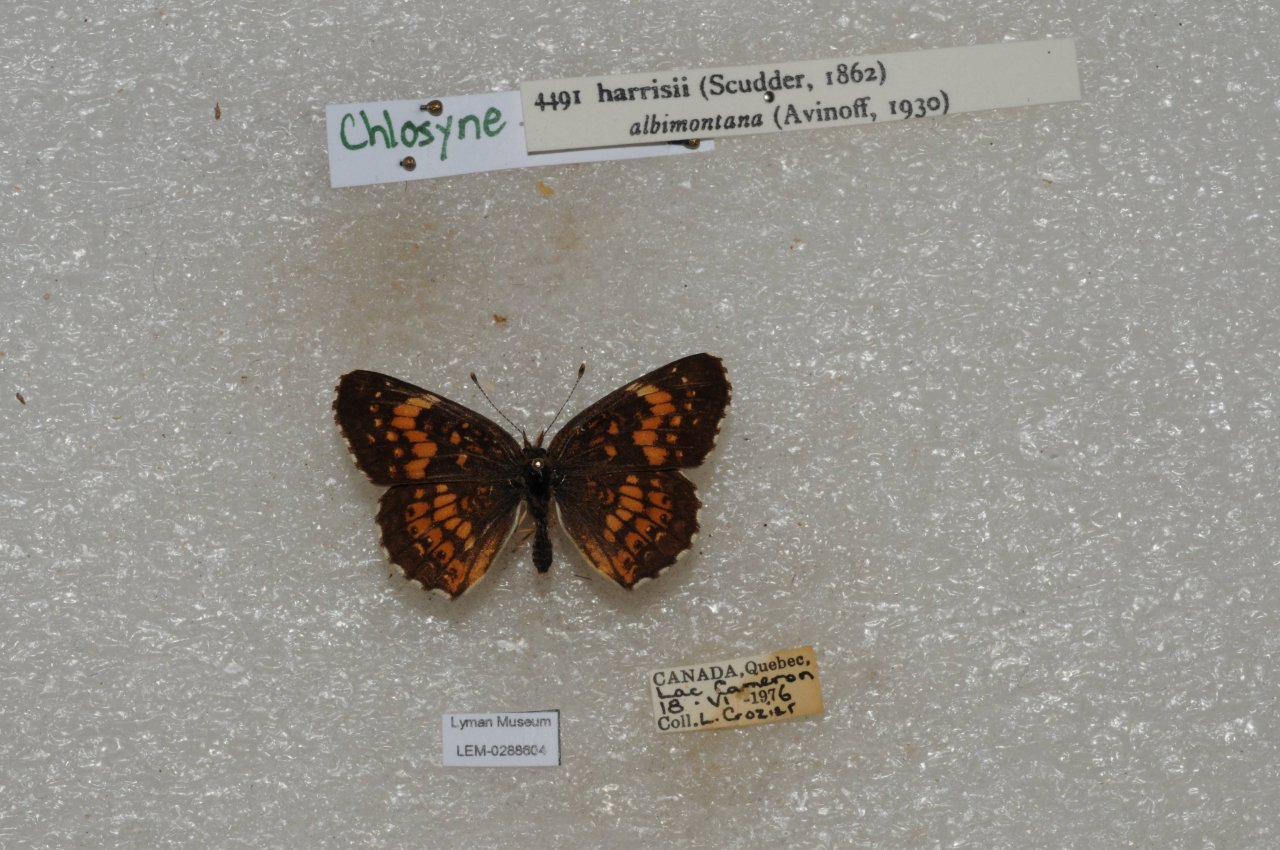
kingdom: Animalia
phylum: Arthropoda
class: Insecta
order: Lepidoptera
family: Nymphalidae
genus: Chlosyne
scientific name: Chlosyne harrisii
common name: Harris's Checkerspot
